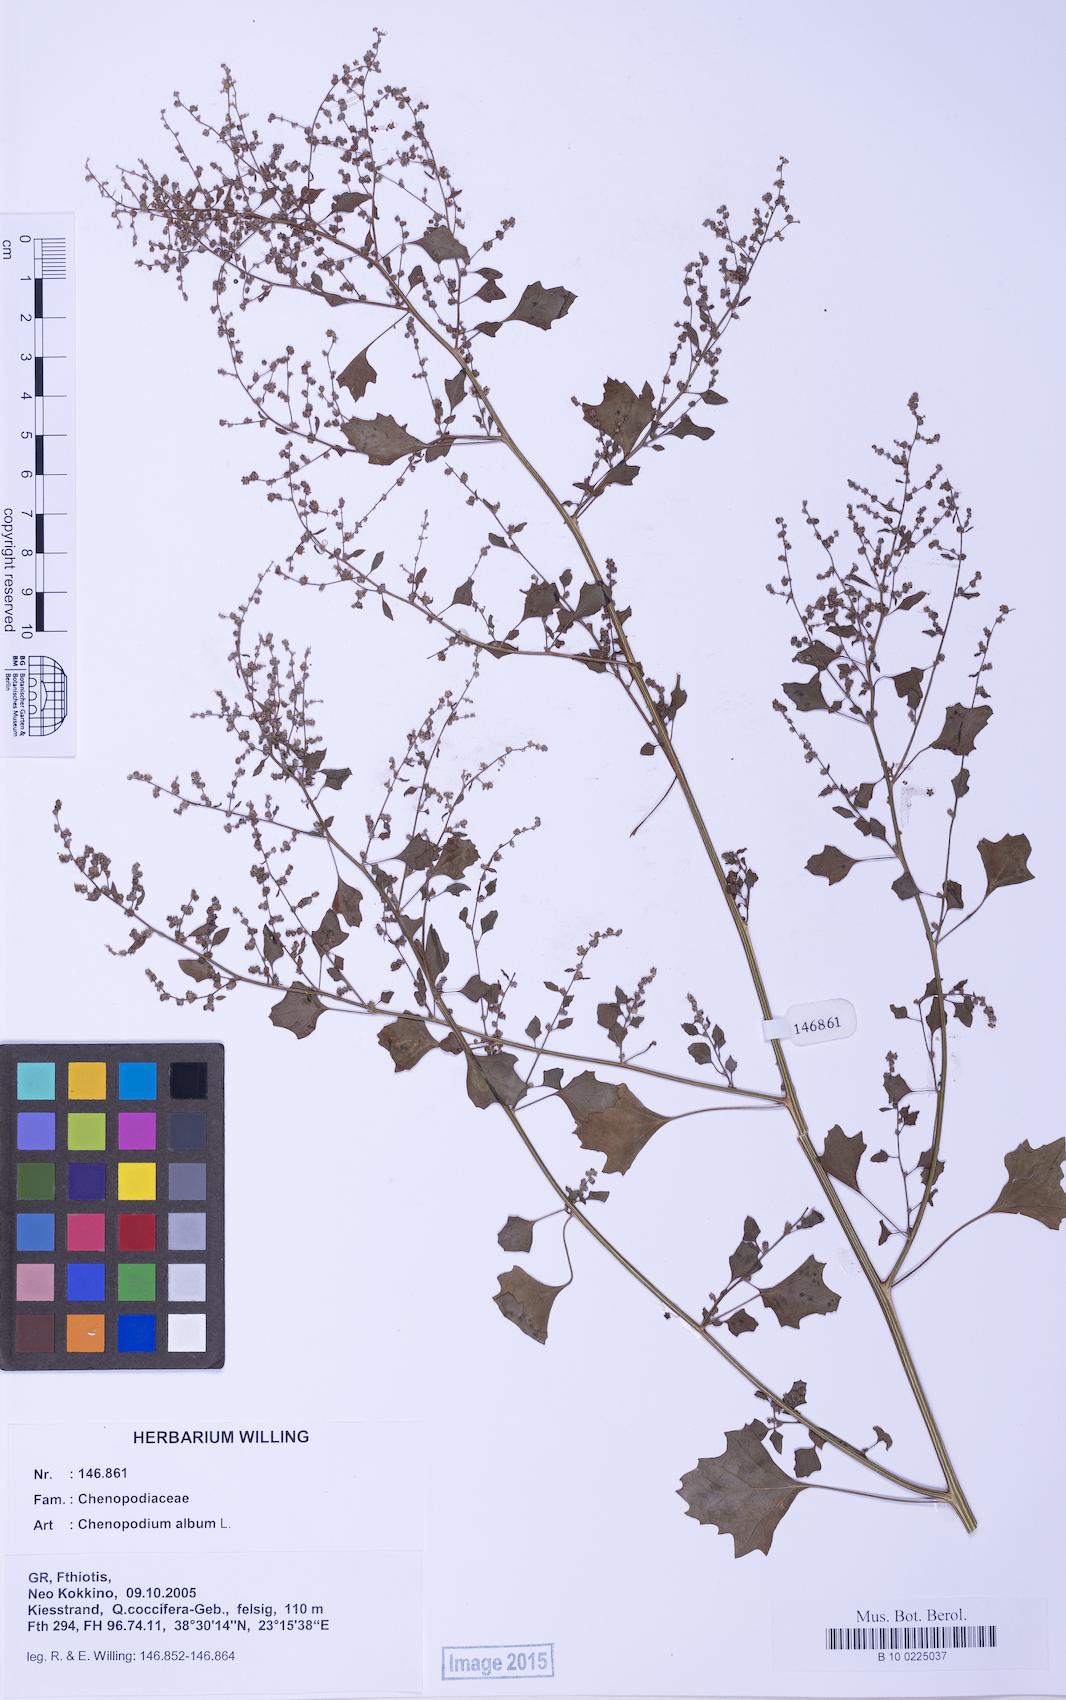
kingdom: Plantae
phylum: Tracheophyta
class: Magnoliopsida
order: Caryophyllales
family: Amaranthaceae
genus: Chenopodium
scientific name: Chenopodium album
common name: Fat-hen
